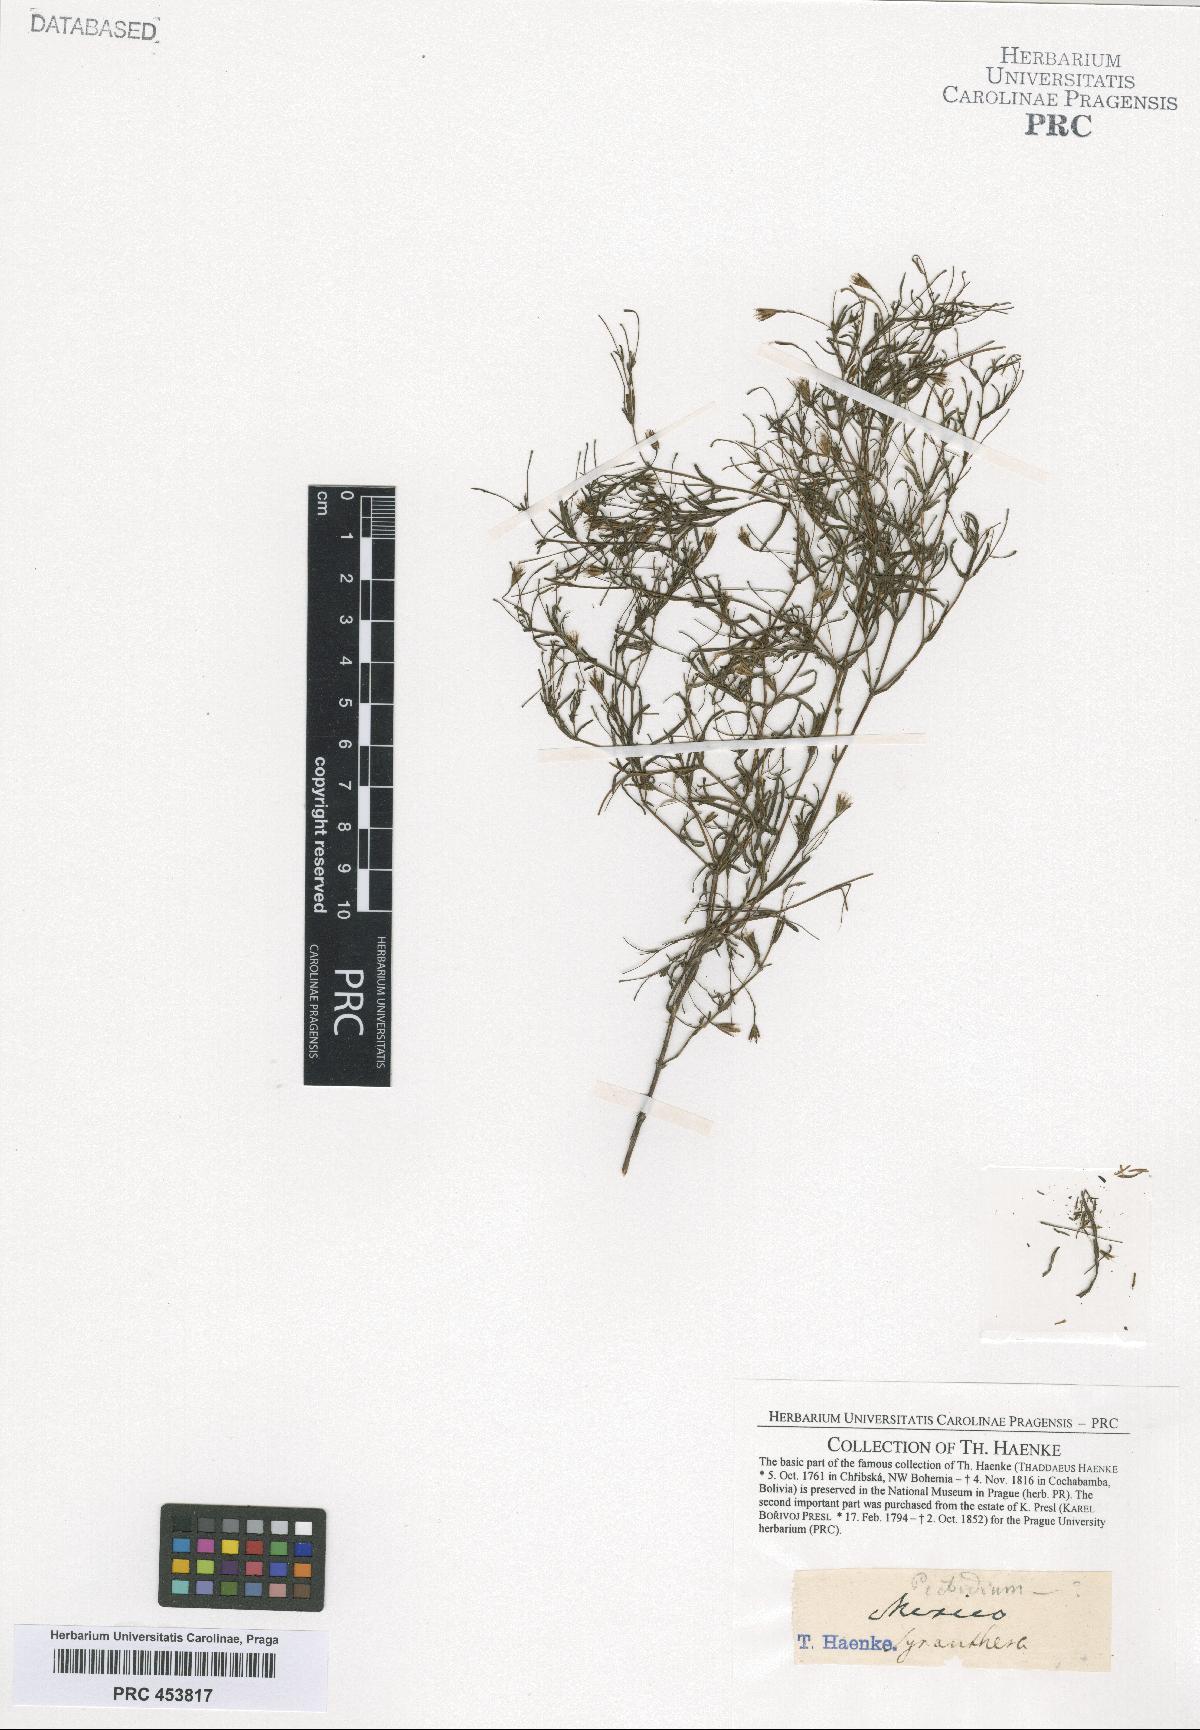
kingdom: Plantae
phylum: Tracheophyta
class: Magnoliopsida
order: Asterales
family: Asteraceae
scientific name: Asteraceae
